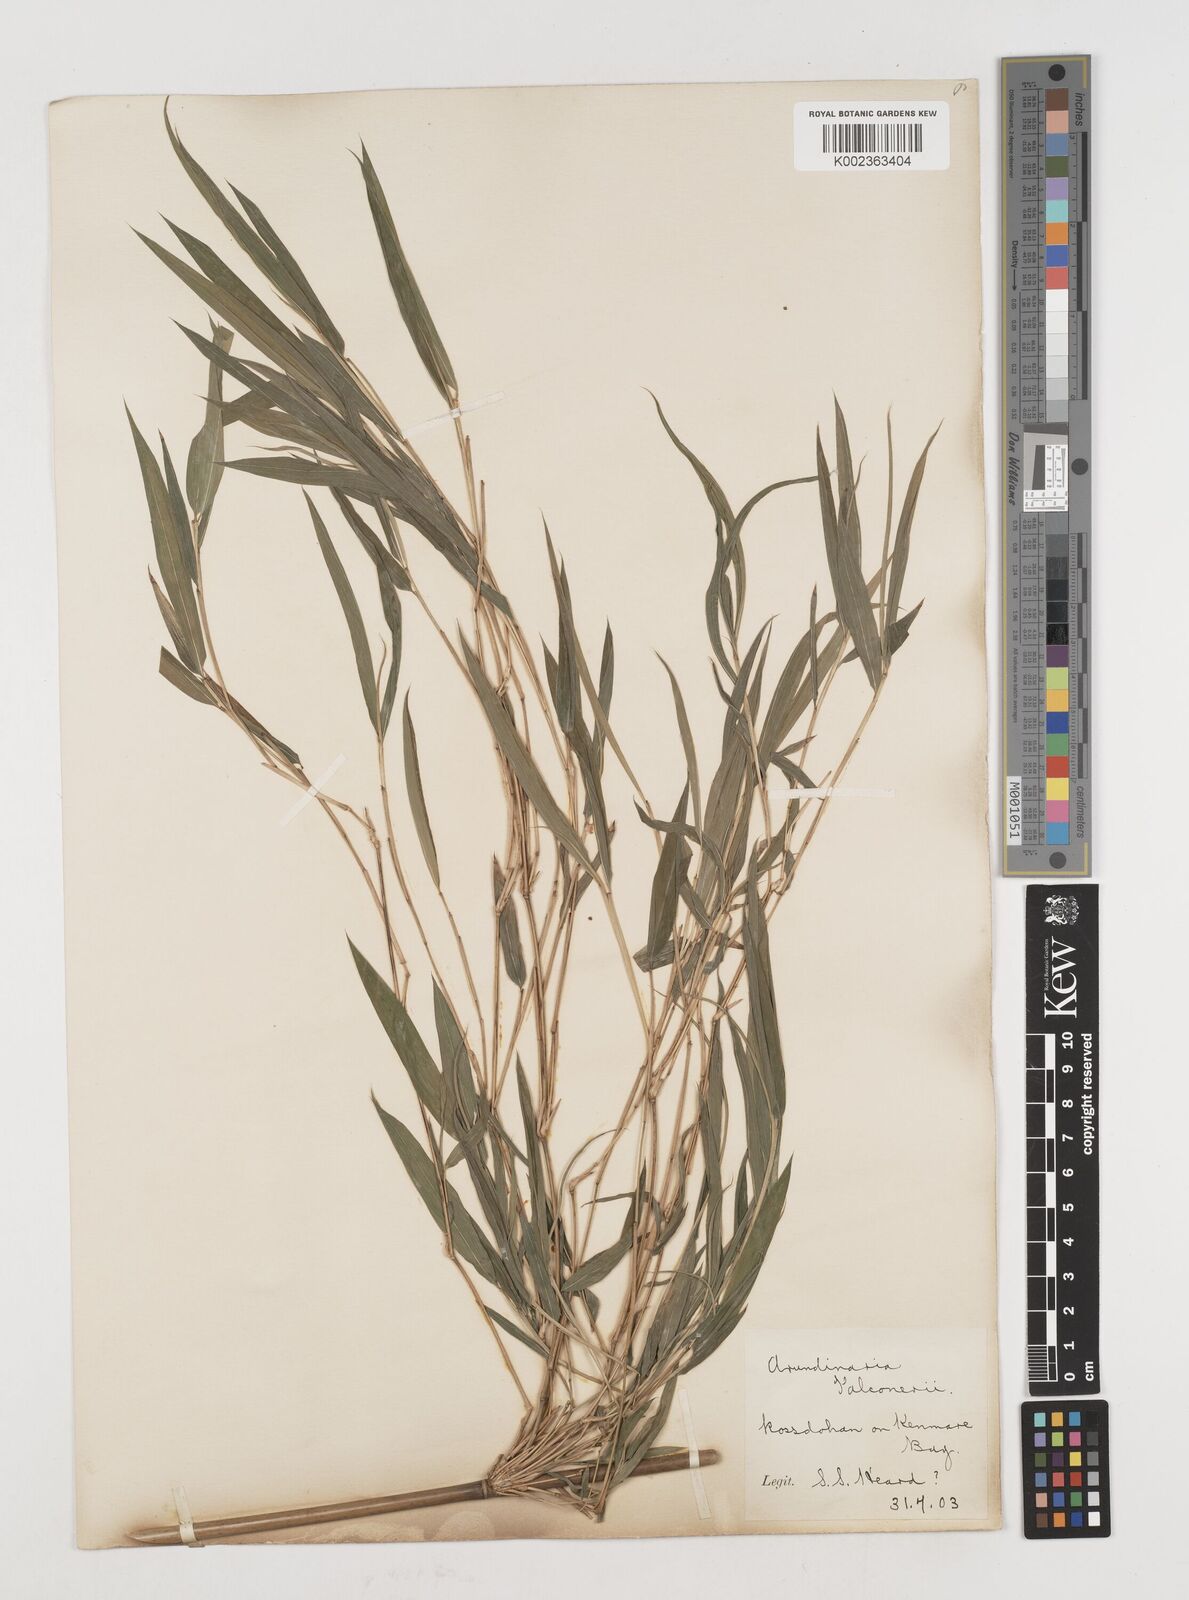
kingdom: Plantae
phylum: Tracheophyta
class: Liliopsida
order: Poales
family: Poaceae
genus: Himalayacalamus
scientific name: Himalayacalamus falconeri
